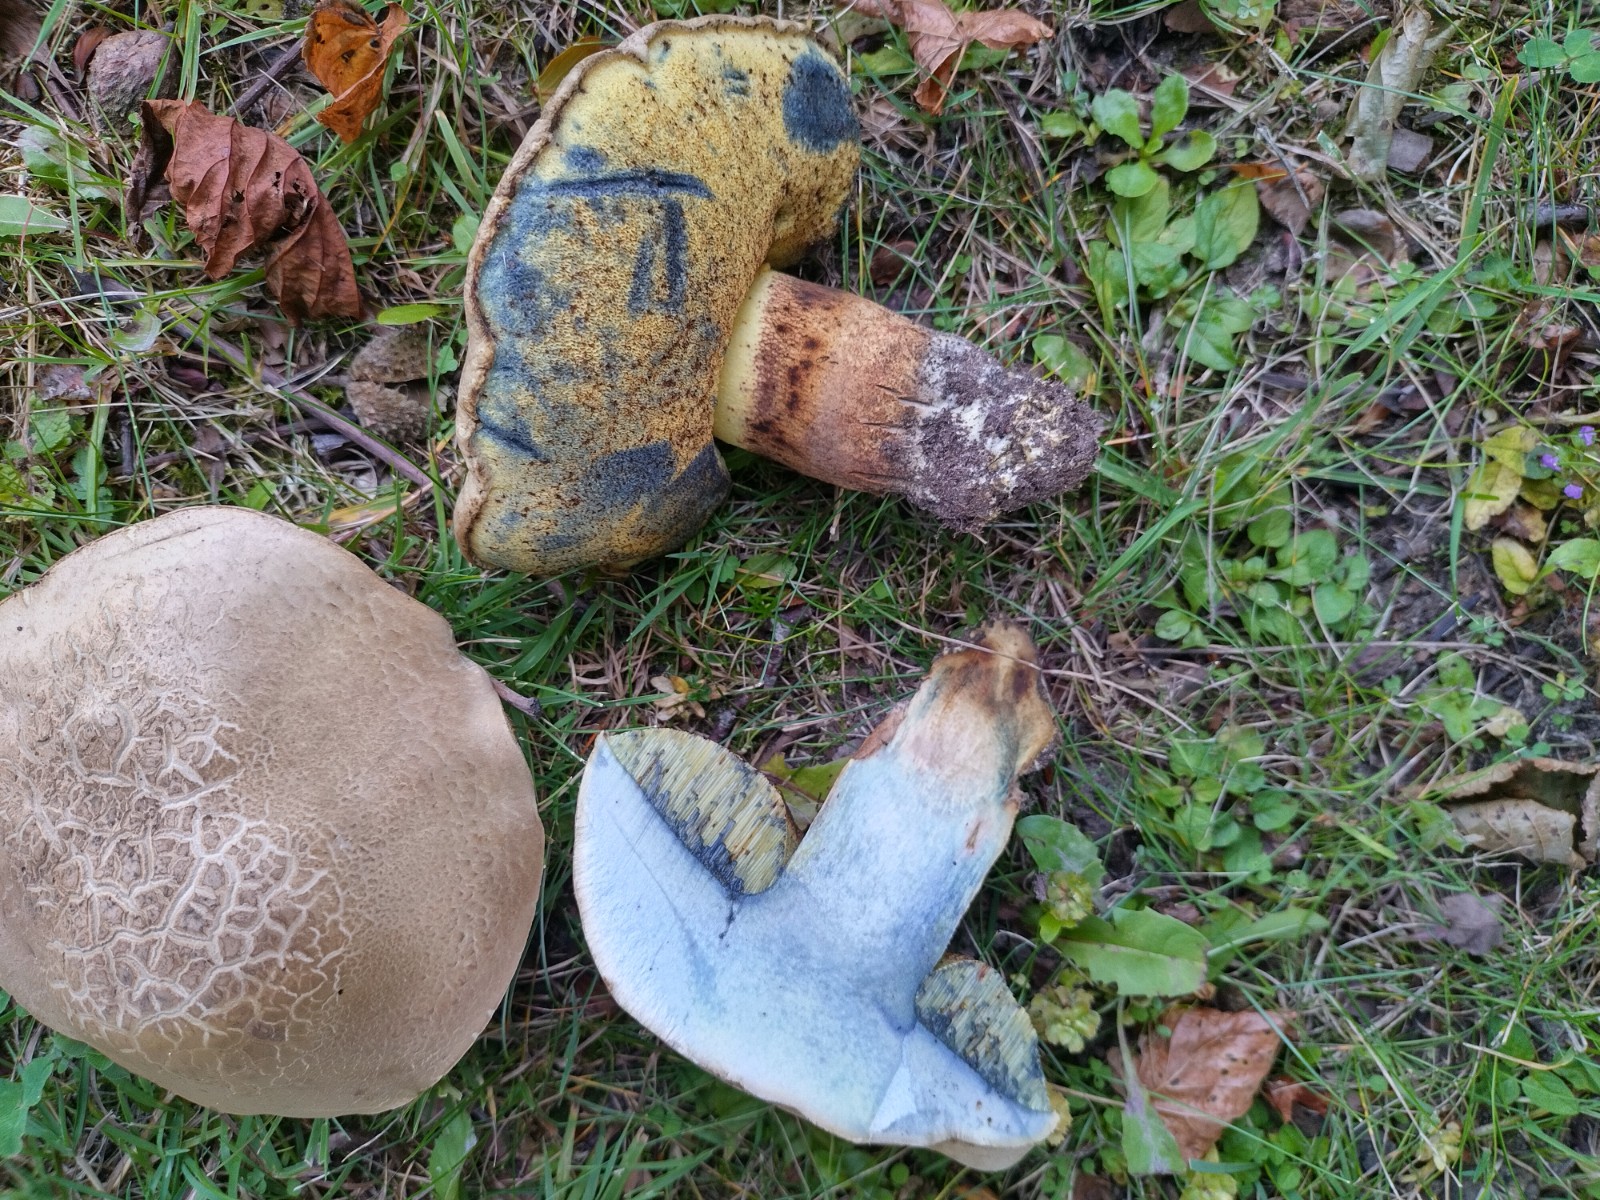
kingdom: Fungi
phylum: Basidiomycota
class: Agaricomycetes
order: Boletales
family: Boletaceae
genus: Caloboletus
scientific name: Caloboletus radicans
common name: rod-rørhat
